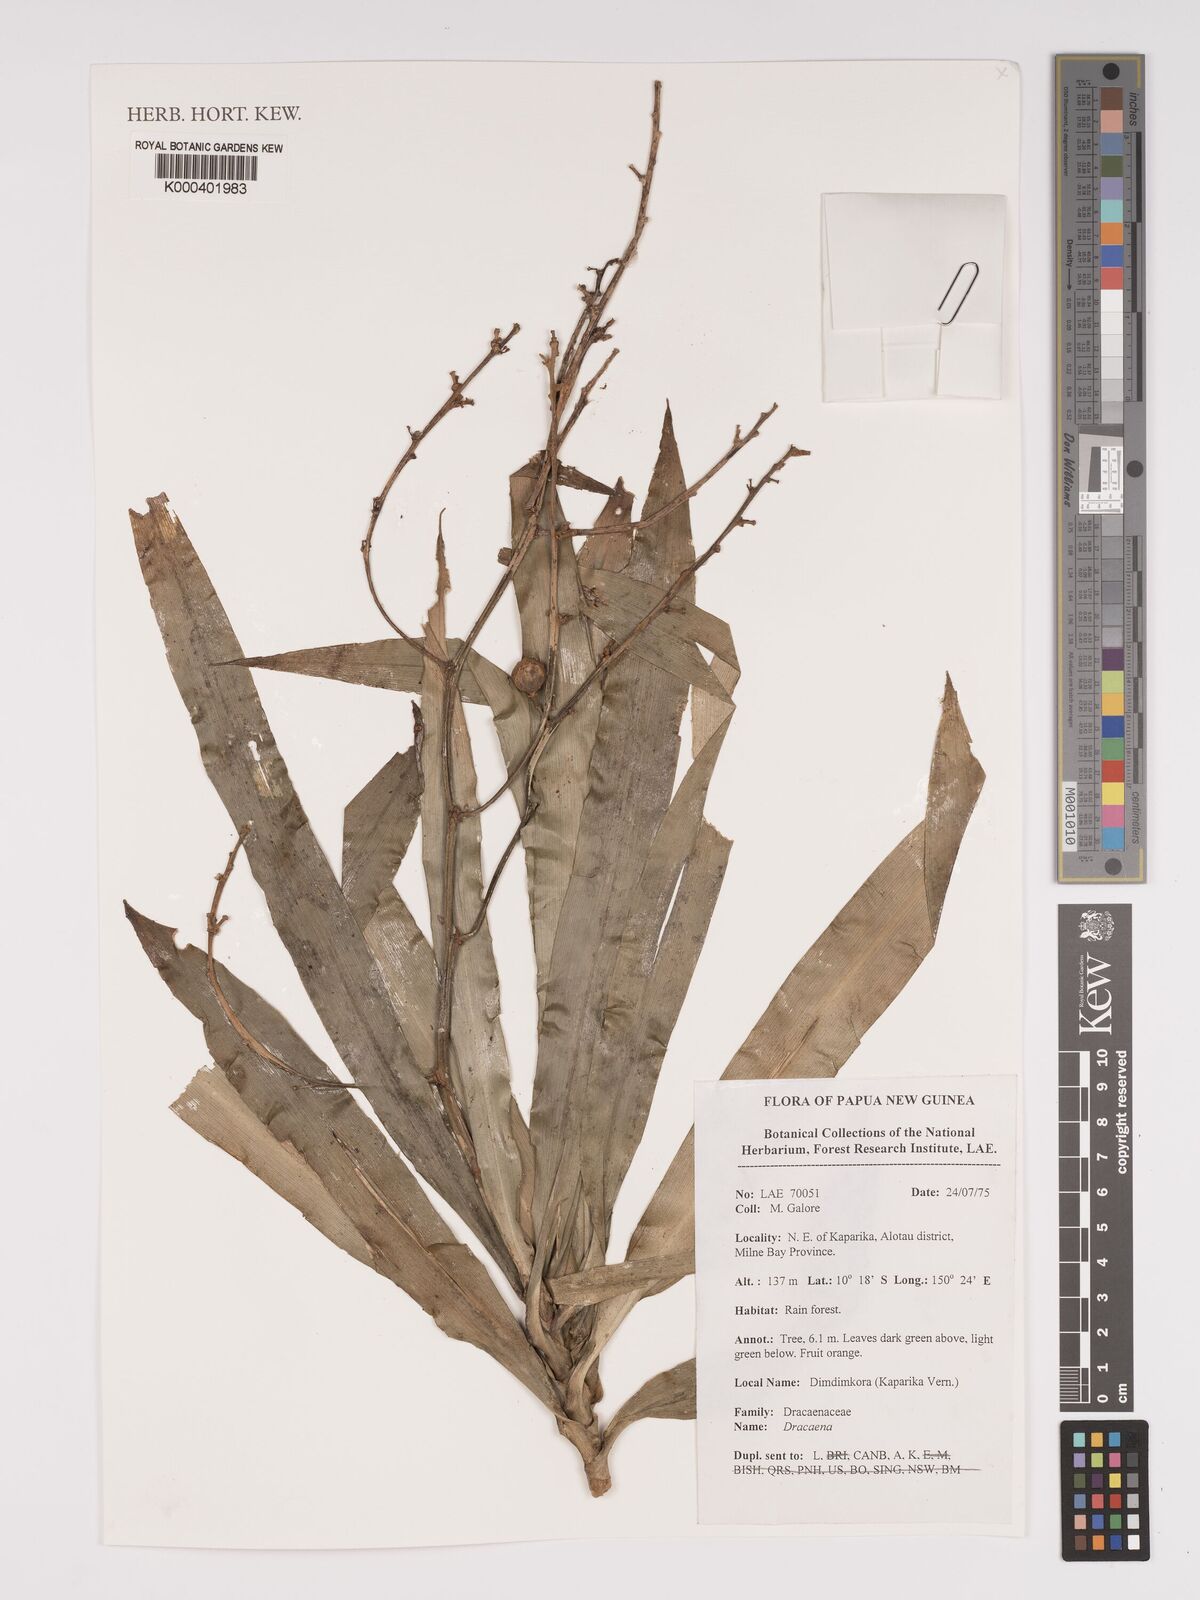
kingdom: Plantae
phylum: Tracheophyta
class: Liliopsida
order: Asparagales
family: Asparagaceae
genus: Dracaena
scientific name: Dracaena
